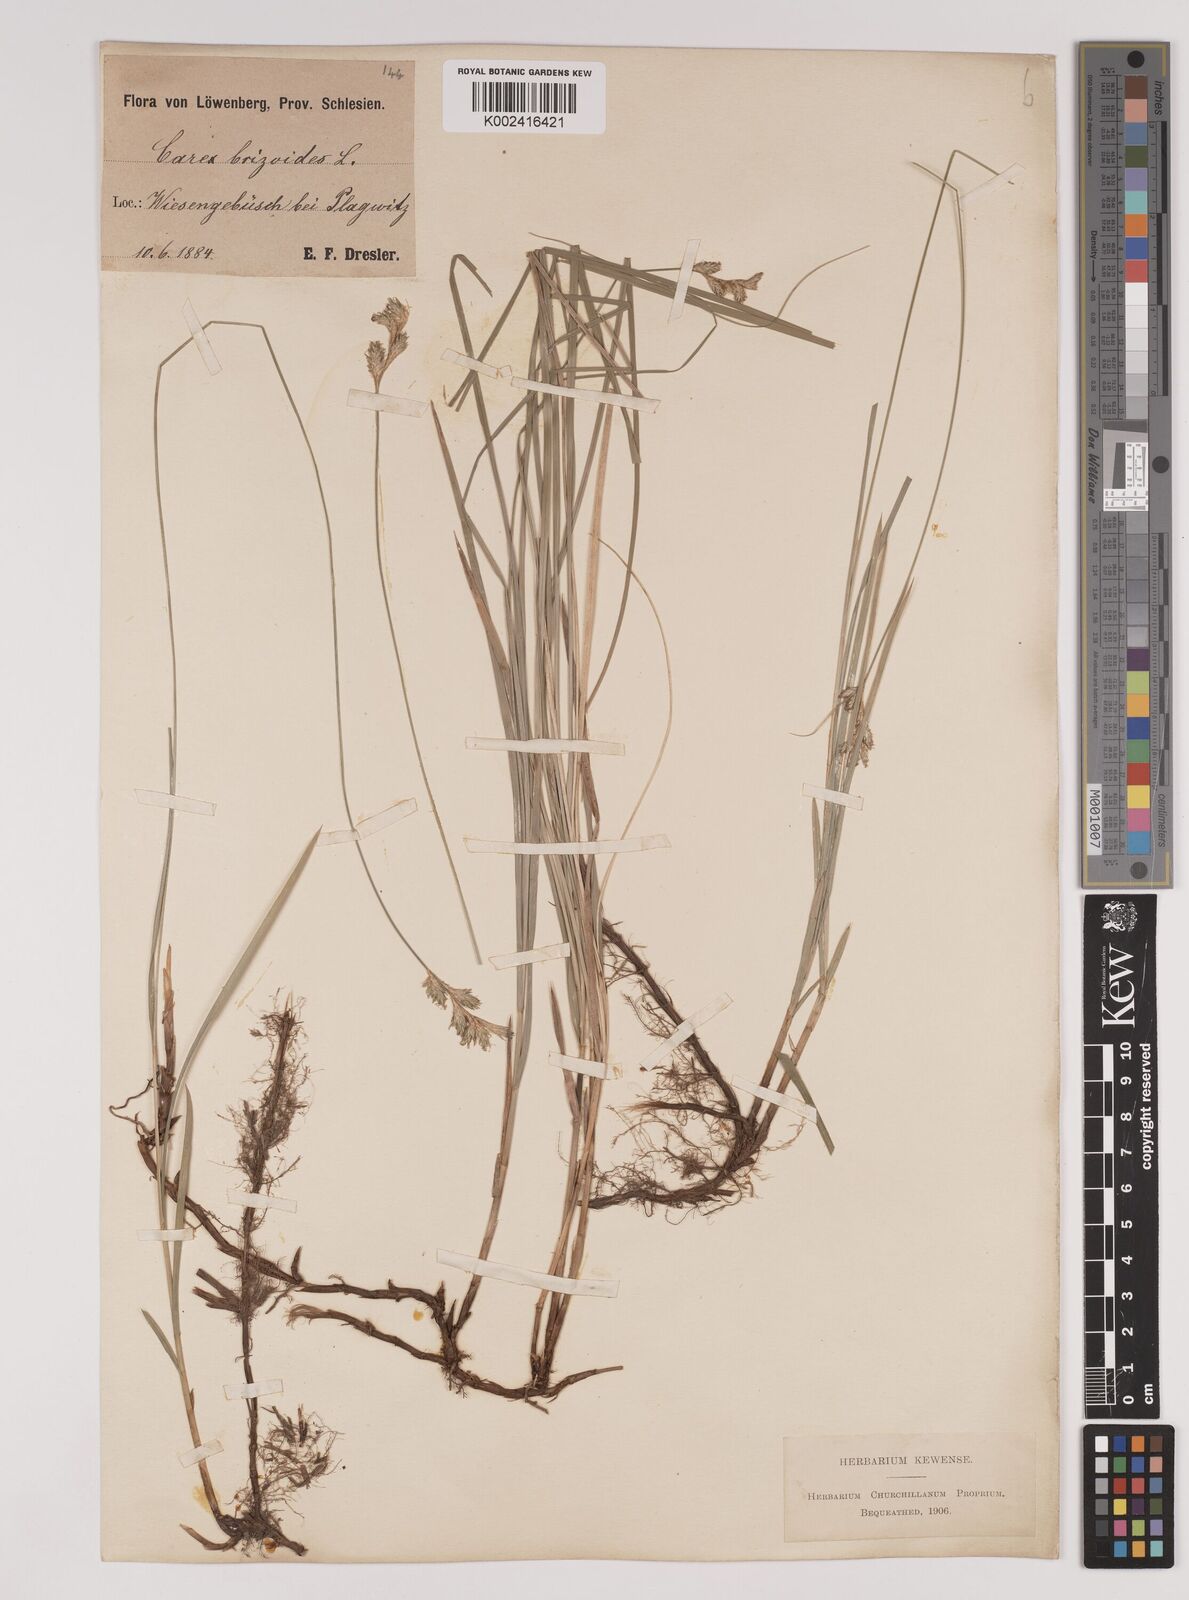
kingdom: Plantae
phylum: Tracheophyta
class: Liliopsida
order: Poales
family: Cyperaceae
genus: Carex
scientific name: Carex brizoides
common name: Quaking-grass sedge
